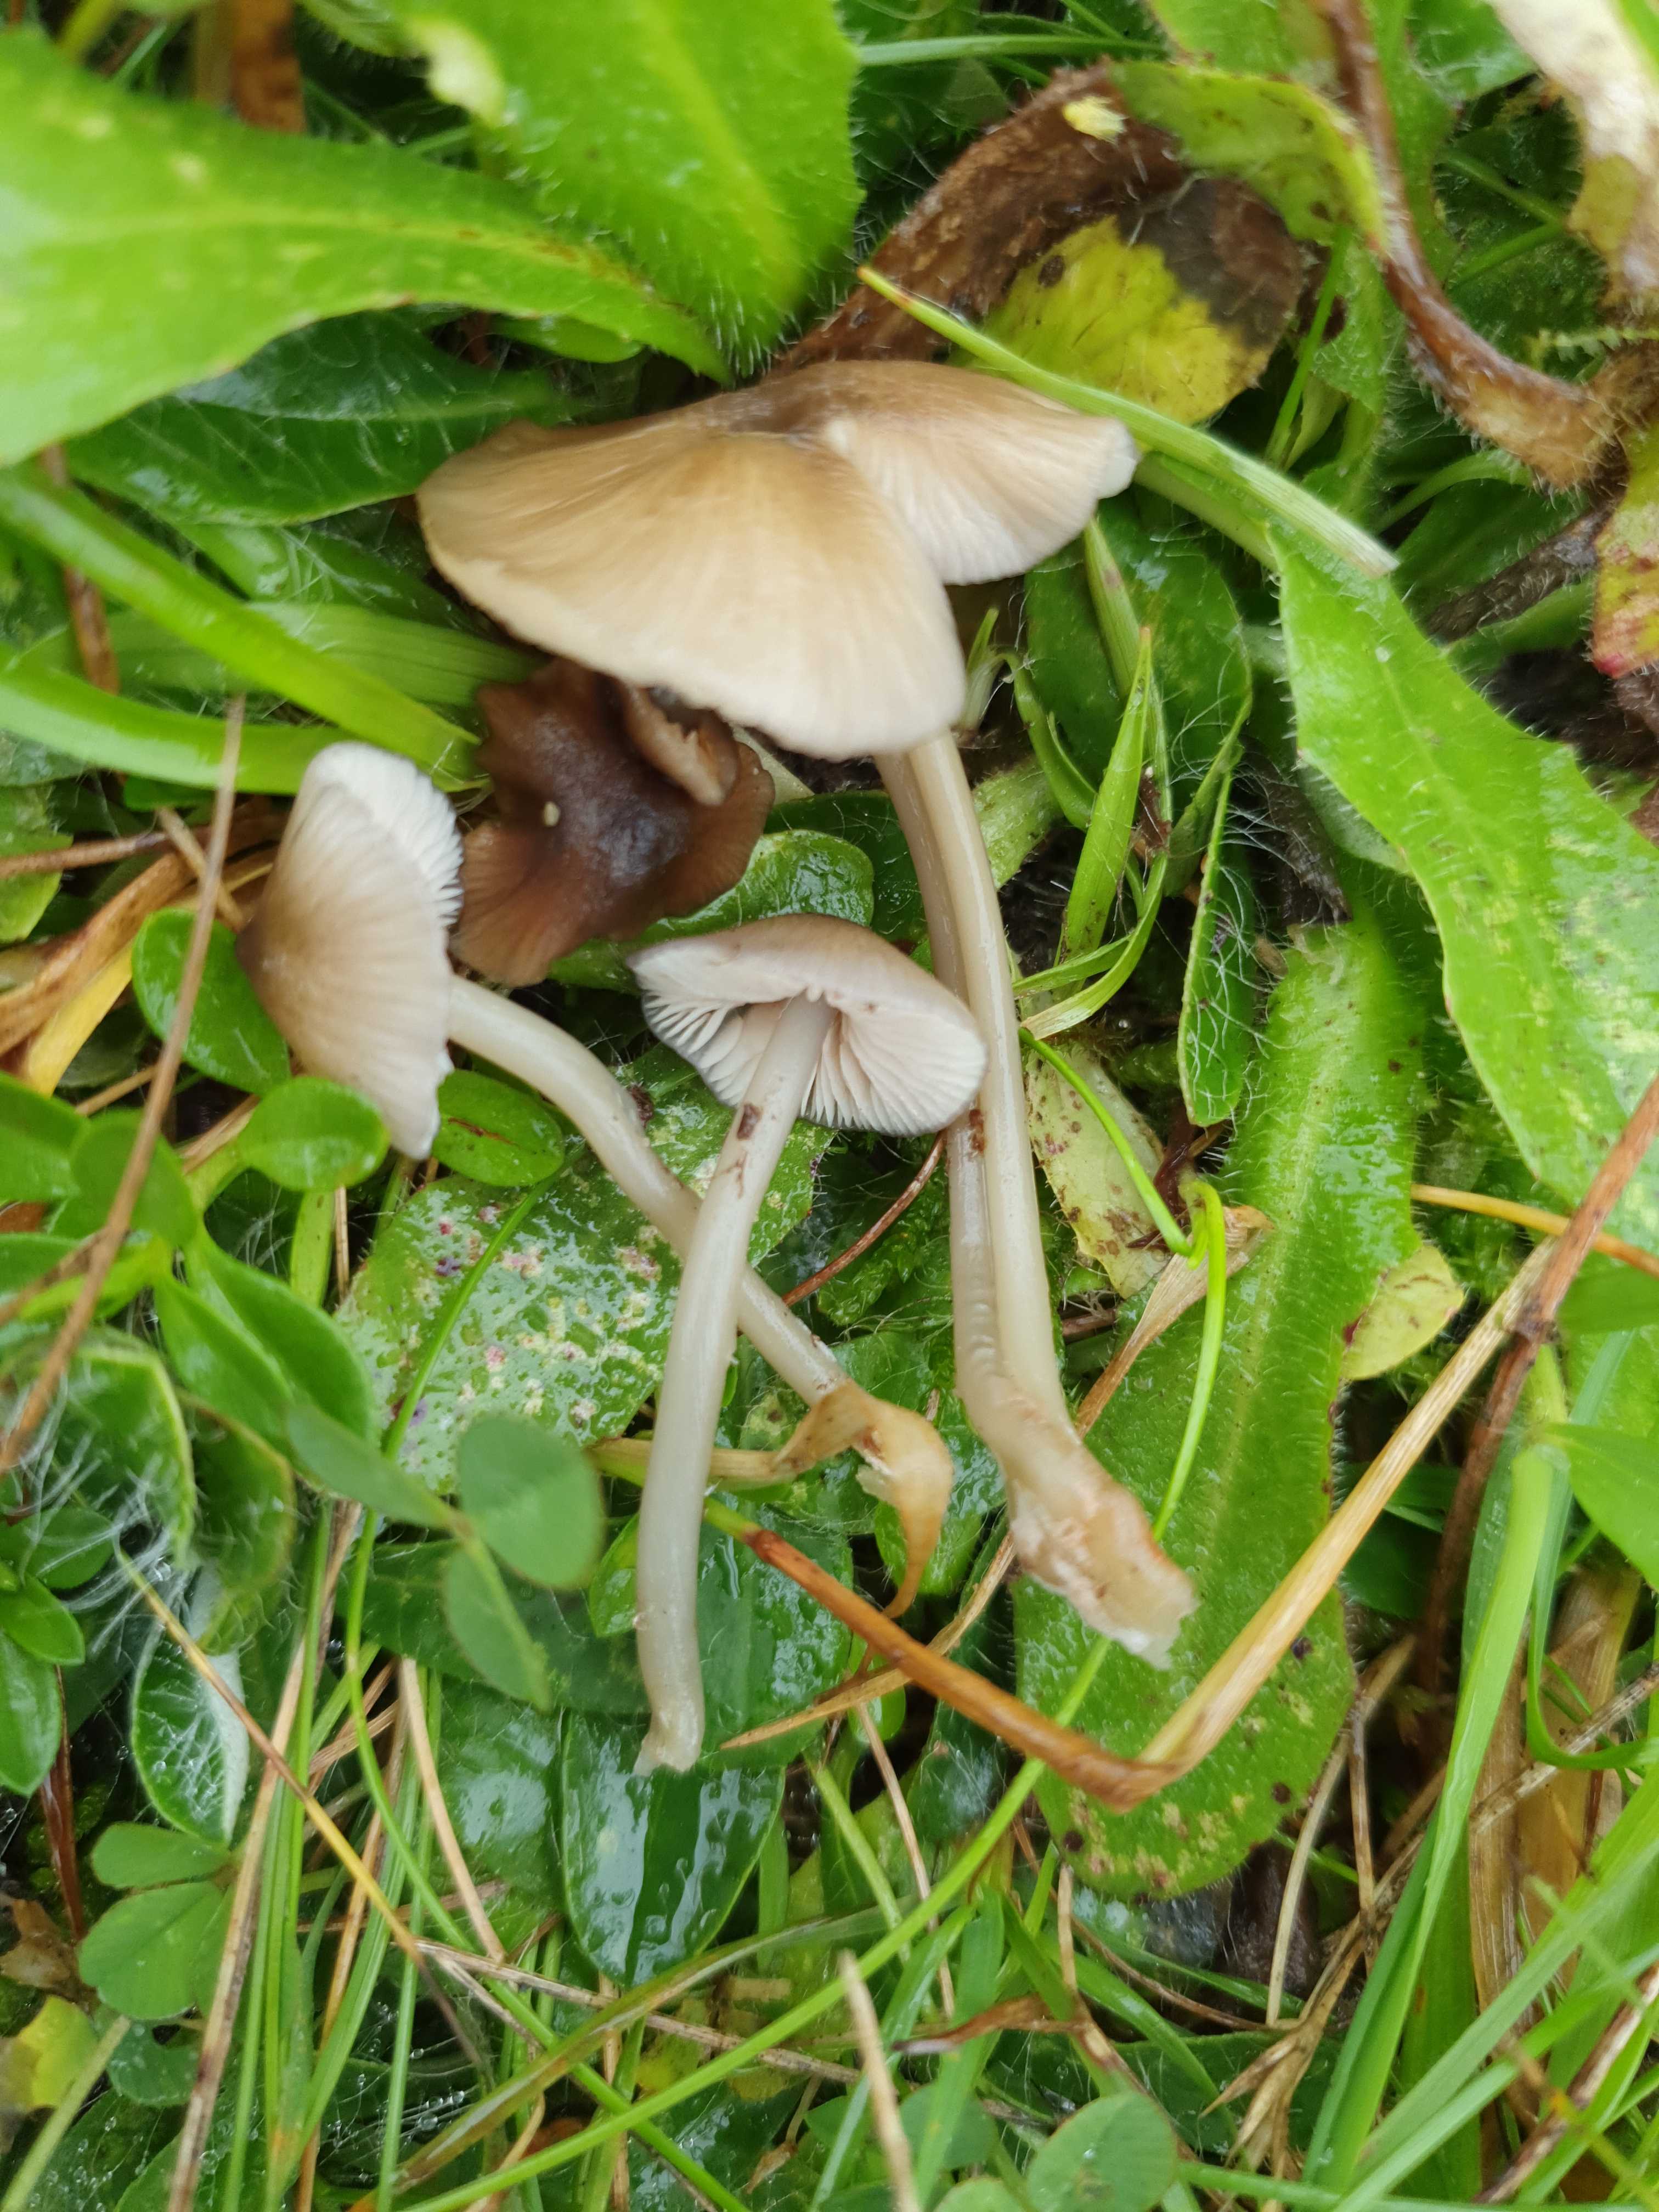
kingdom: Fungi
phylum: Basidiomycota
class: Agaricomycetes
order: Agaricales
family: Entolomataceae
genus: Entoloma
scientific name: Entoloma exile
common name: rødplettet rødblad
